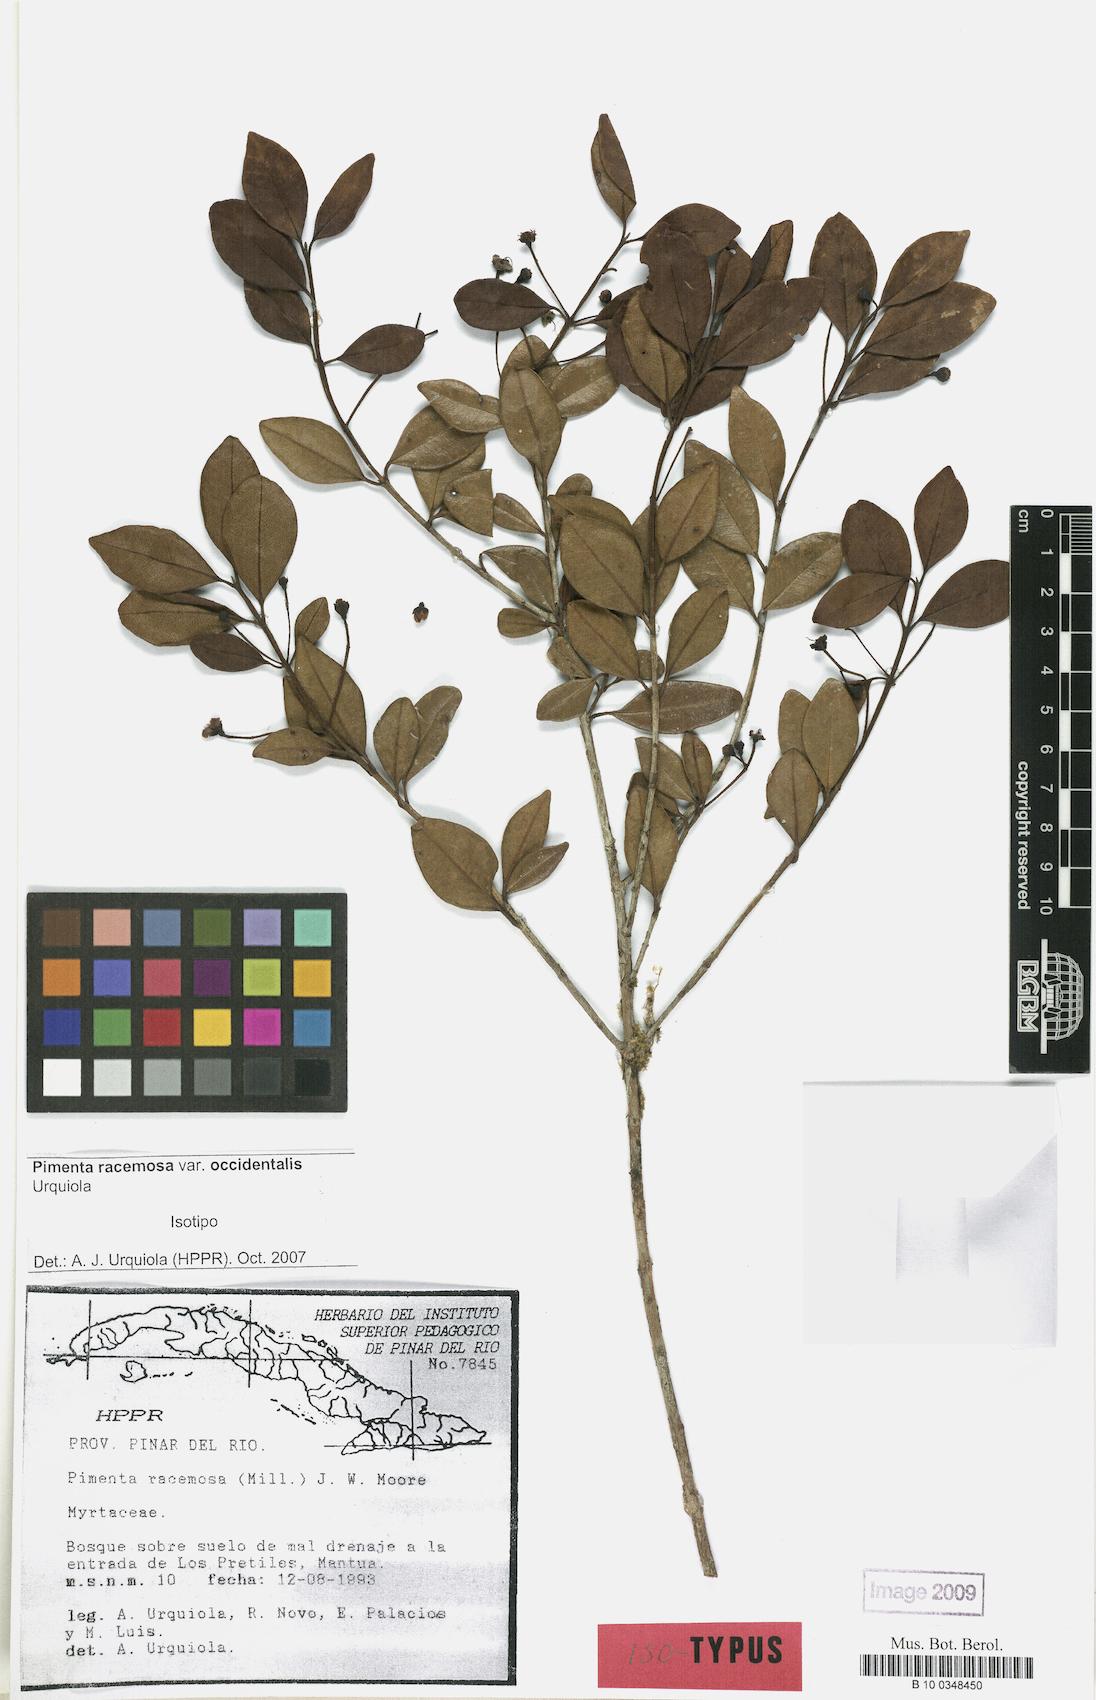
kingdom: Plantae
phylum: Tracheophyta
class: Magnoliopsida
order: Myrtales
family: Myrtaceae
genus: Pimenta
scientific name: Pimenta racemosa
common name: Bay rum tree
